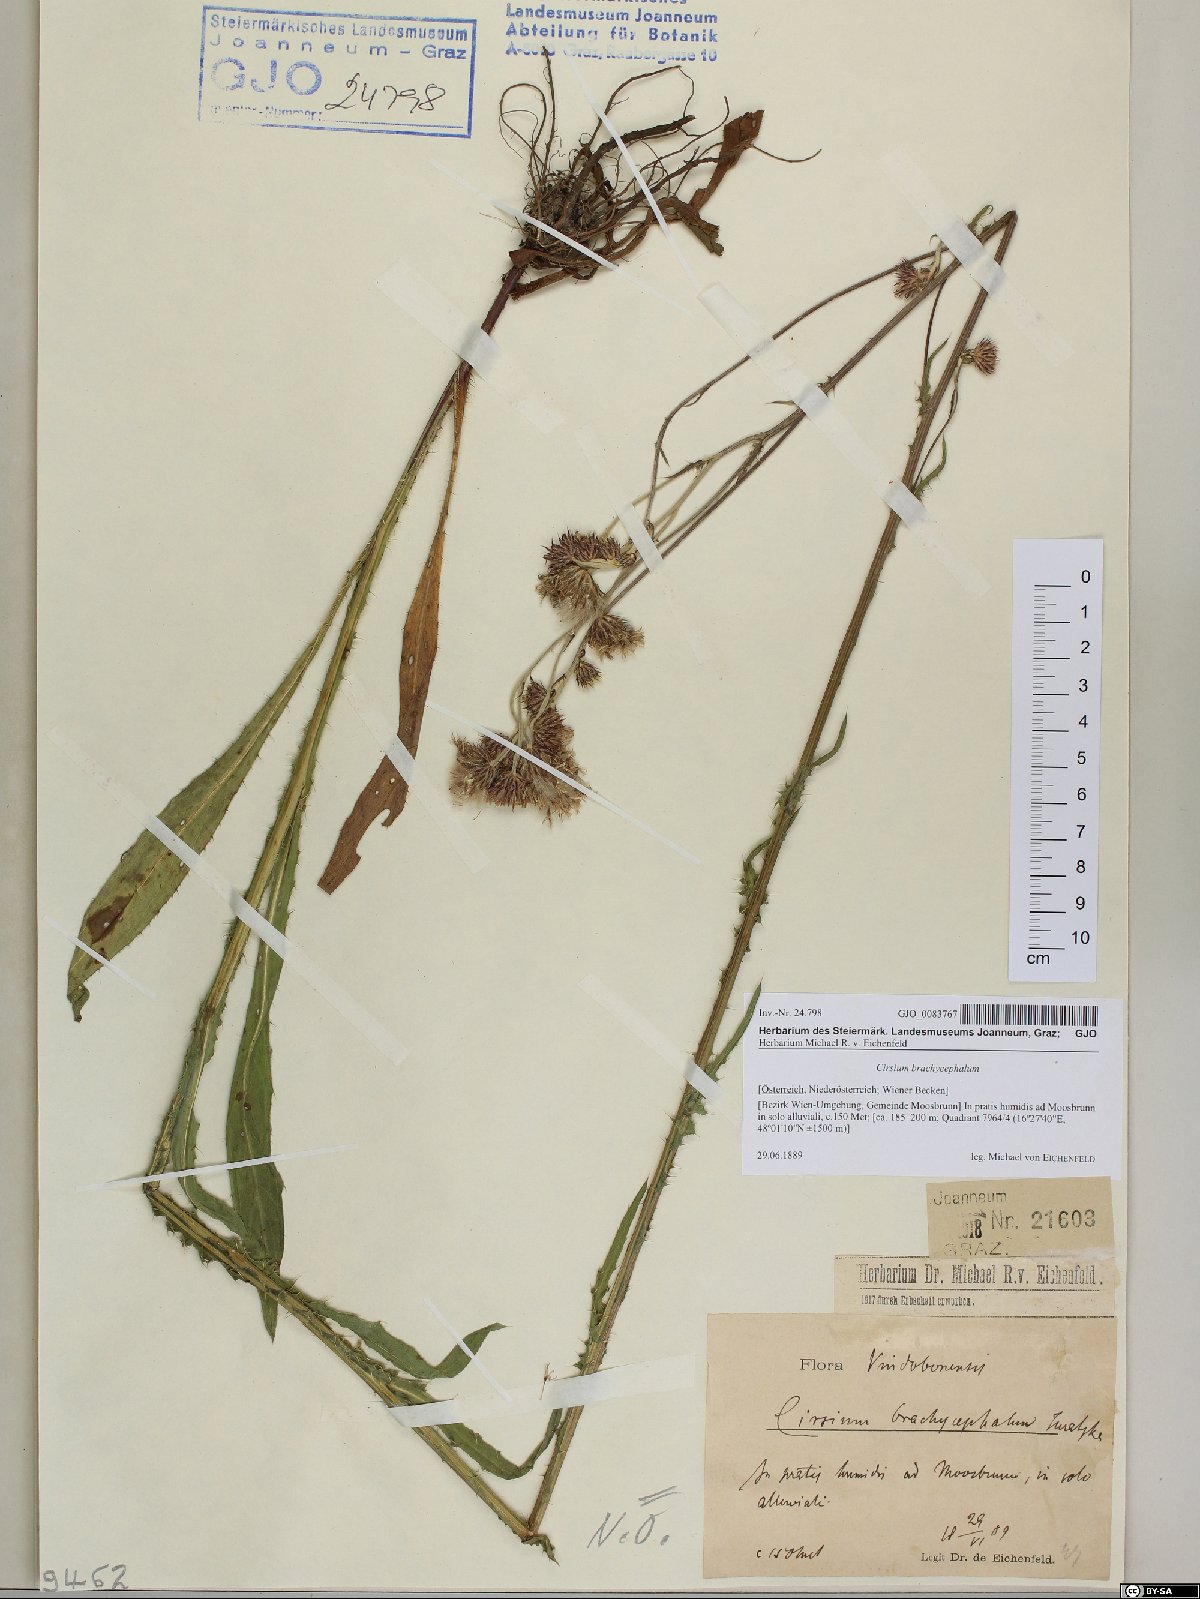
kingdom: Plantae
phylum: Tracheophyta
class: Magnoliopsida
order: Asterales
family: Asteraceae
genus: Cirsium
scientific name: Cirsium brachycephalum
